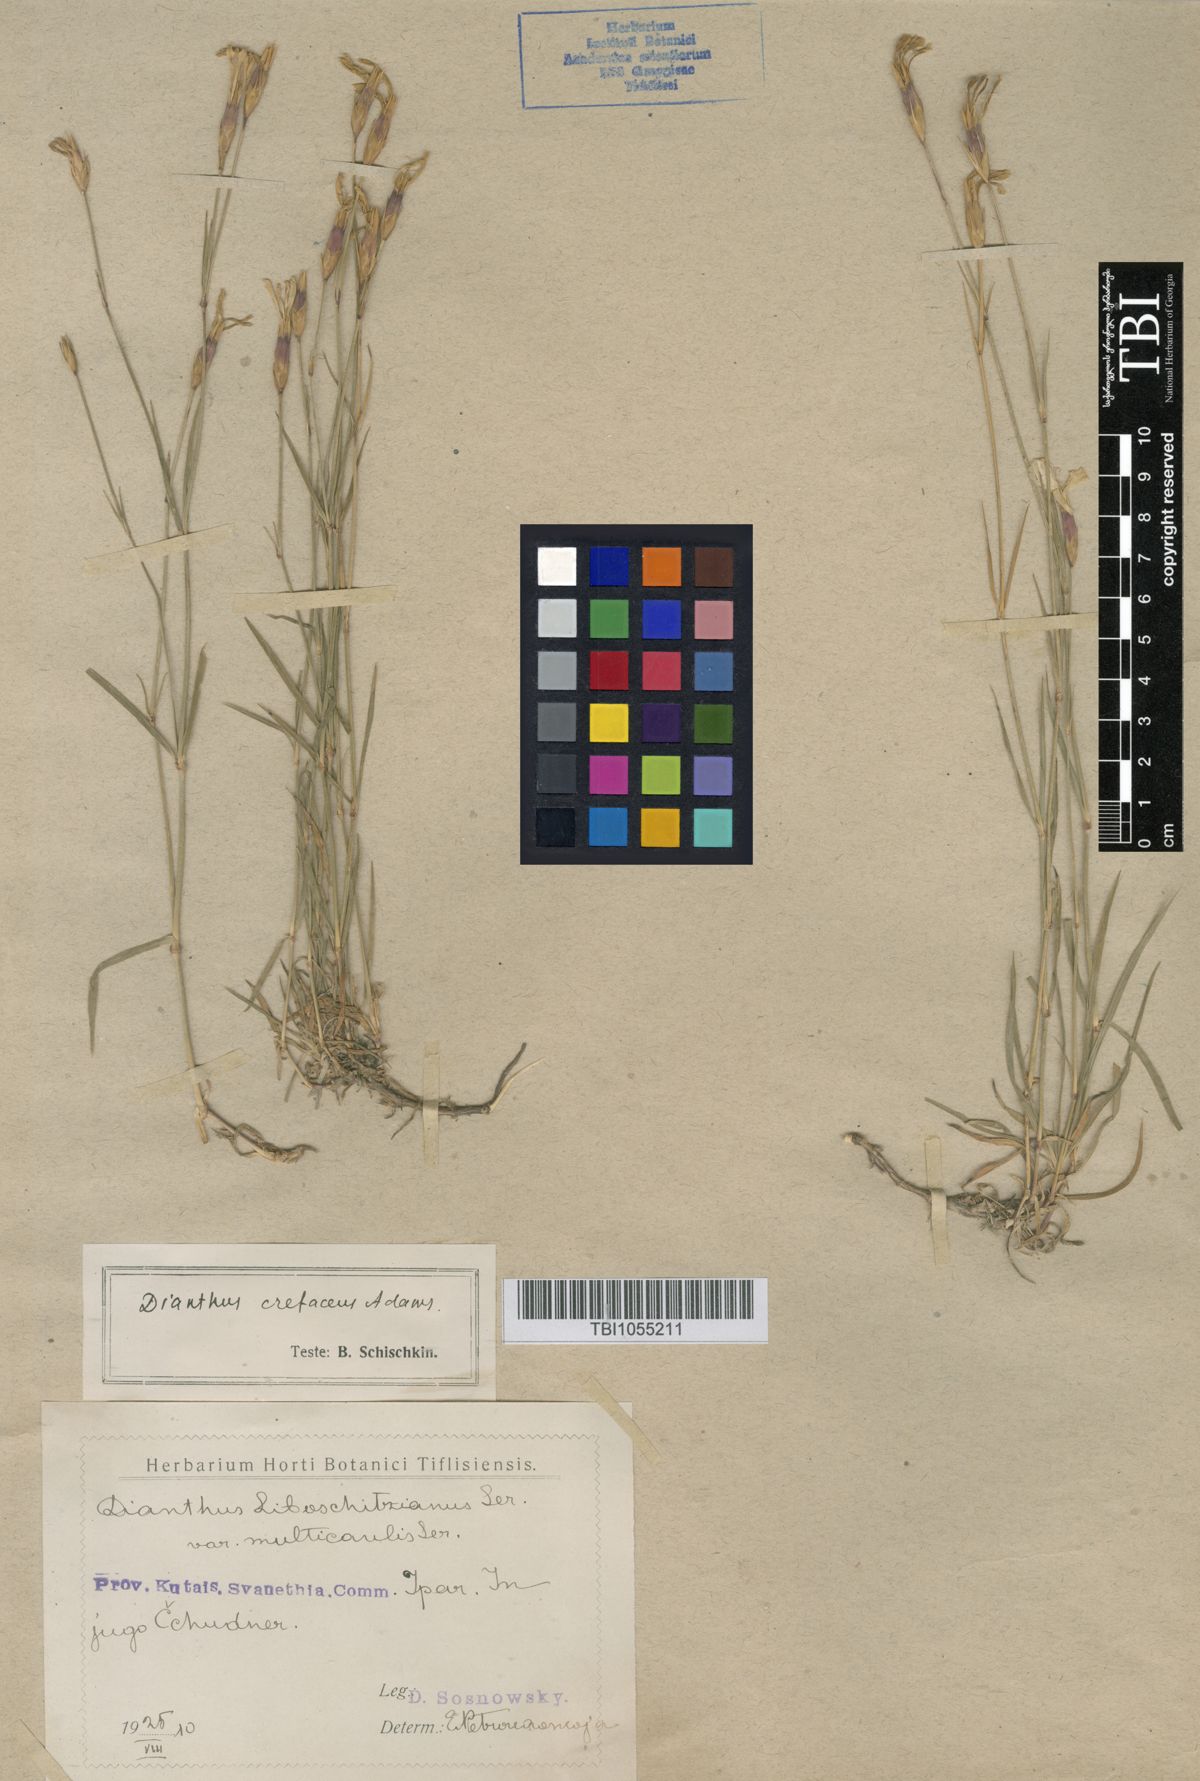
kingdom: Plantae
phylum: Tracheophyta
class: Magnoliopsida
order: Caryophyllales
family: Caryophyllaceae
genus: Dianthus
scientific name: Dianthus cretaceus
